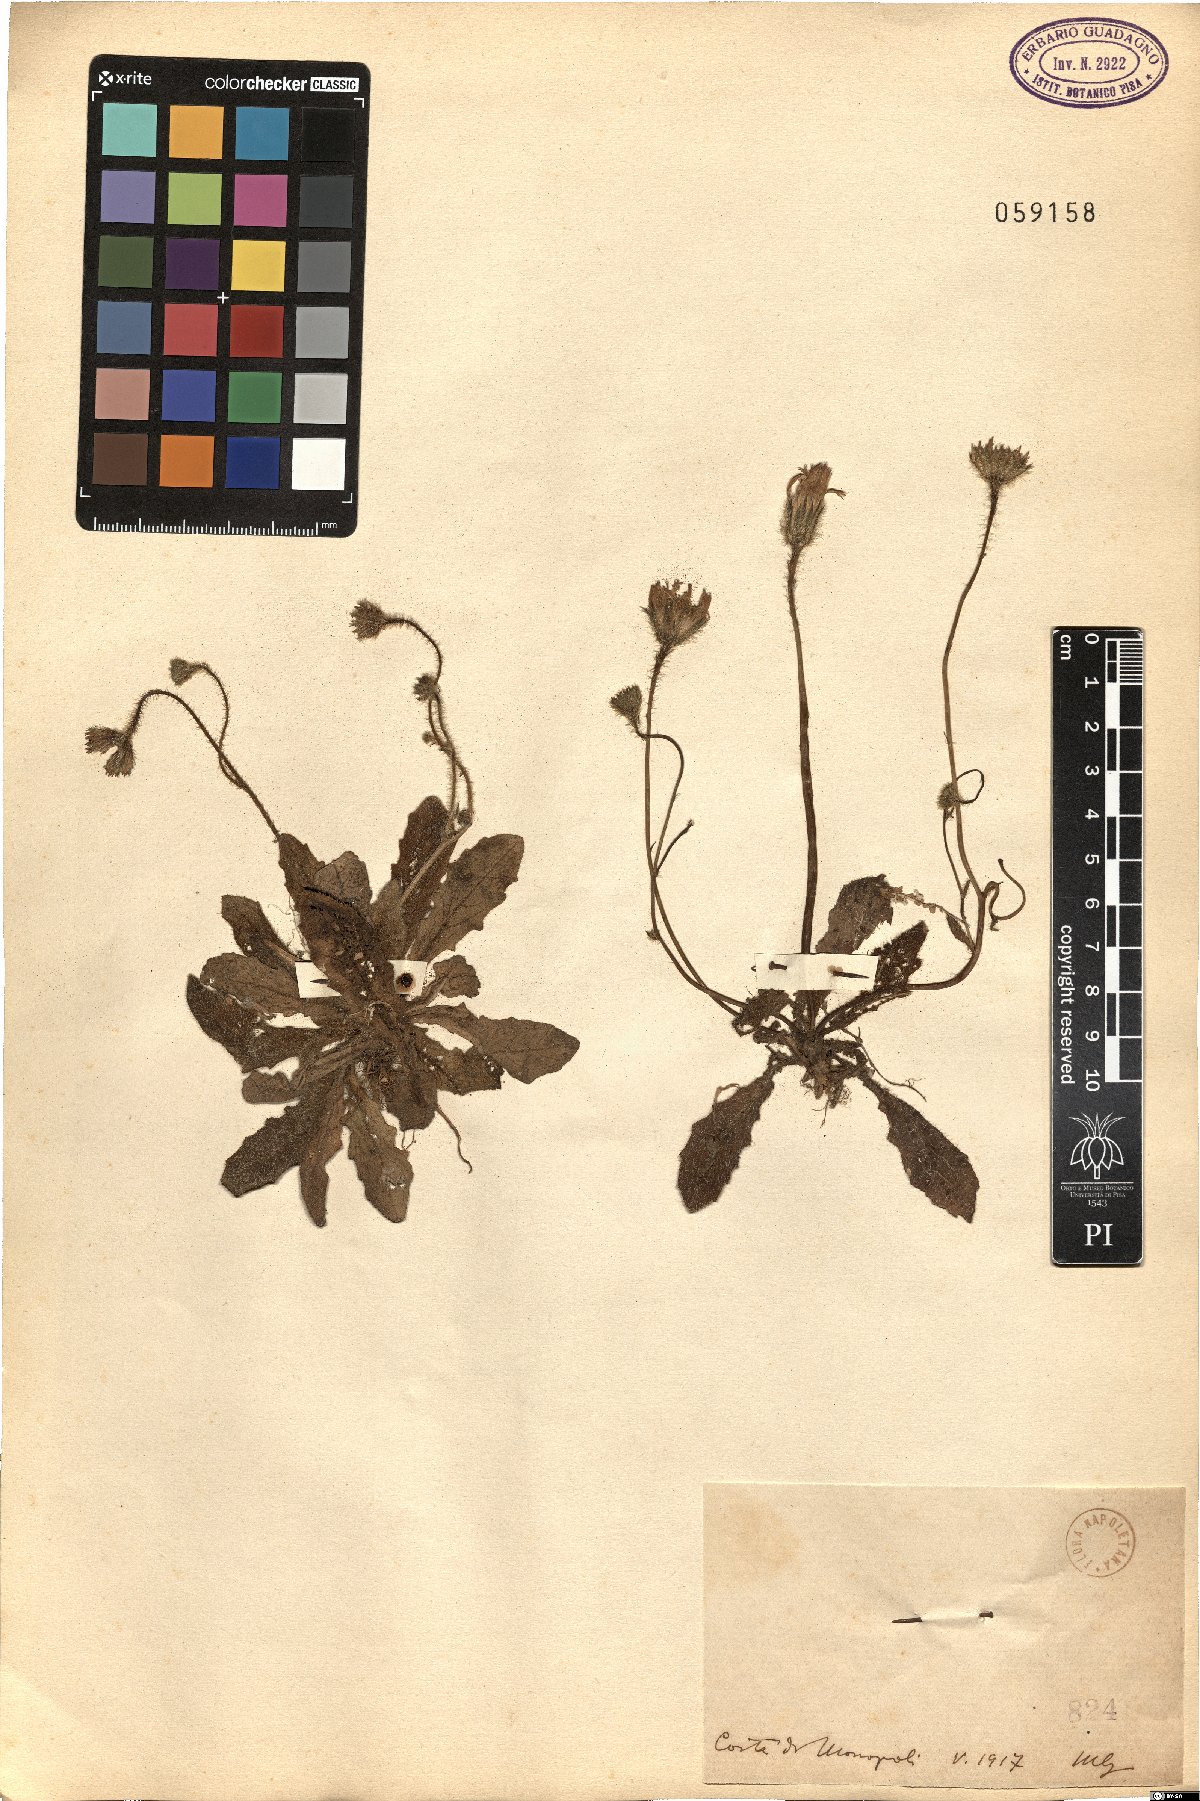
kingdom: Plantae
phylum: Tracheophyta
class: Magnoliopsida
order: Asterales
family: Asteraceae
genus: Achyrophorus
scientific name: Achyrophorus valdesii
